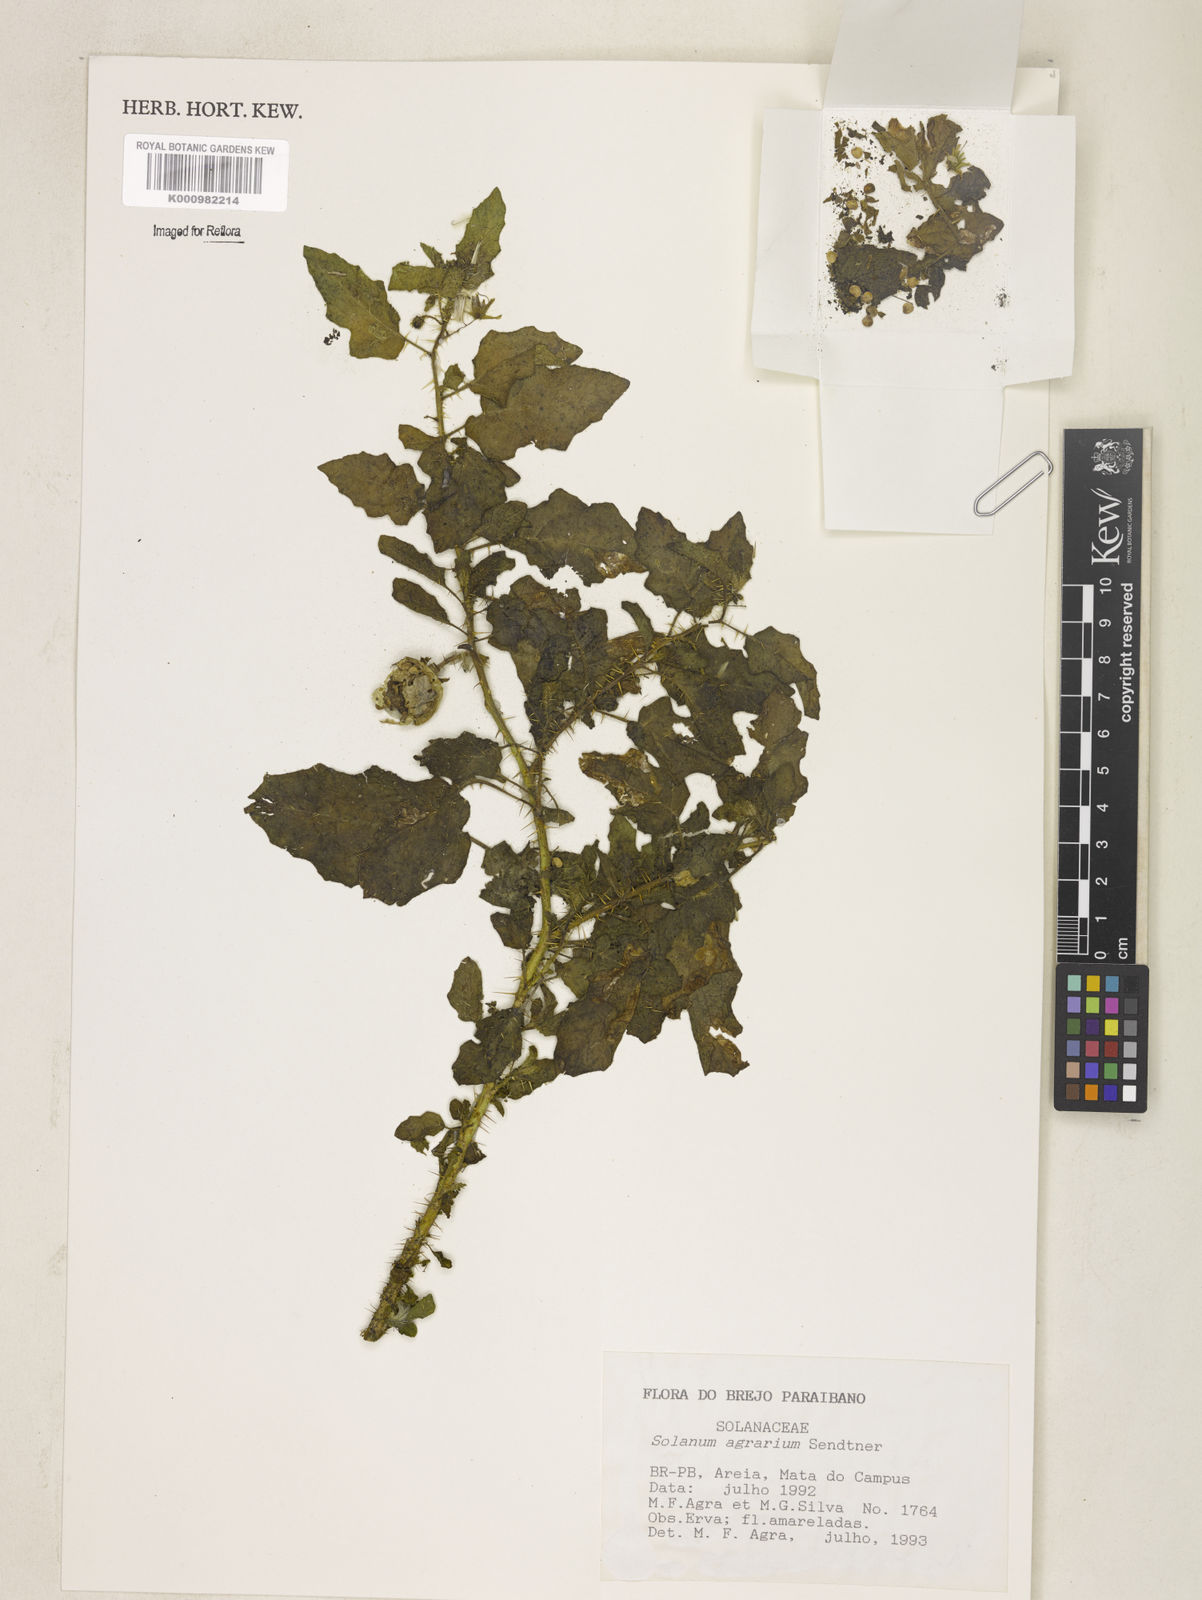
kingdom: Plantae
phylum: Tracheophyta
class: Magnoliopsida
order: Solanales
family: Solanaceae
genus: Solanum
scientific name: Solanum agrarium
